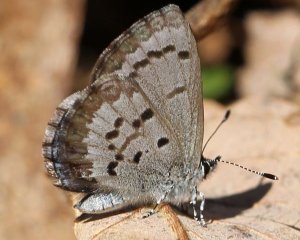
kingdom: Animalia
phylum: Arthropoda
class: Insecta
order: Lepidoptera
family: Lycaenidae
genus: Celastrina
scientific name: Celastrina ladon
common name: Spring Azure
